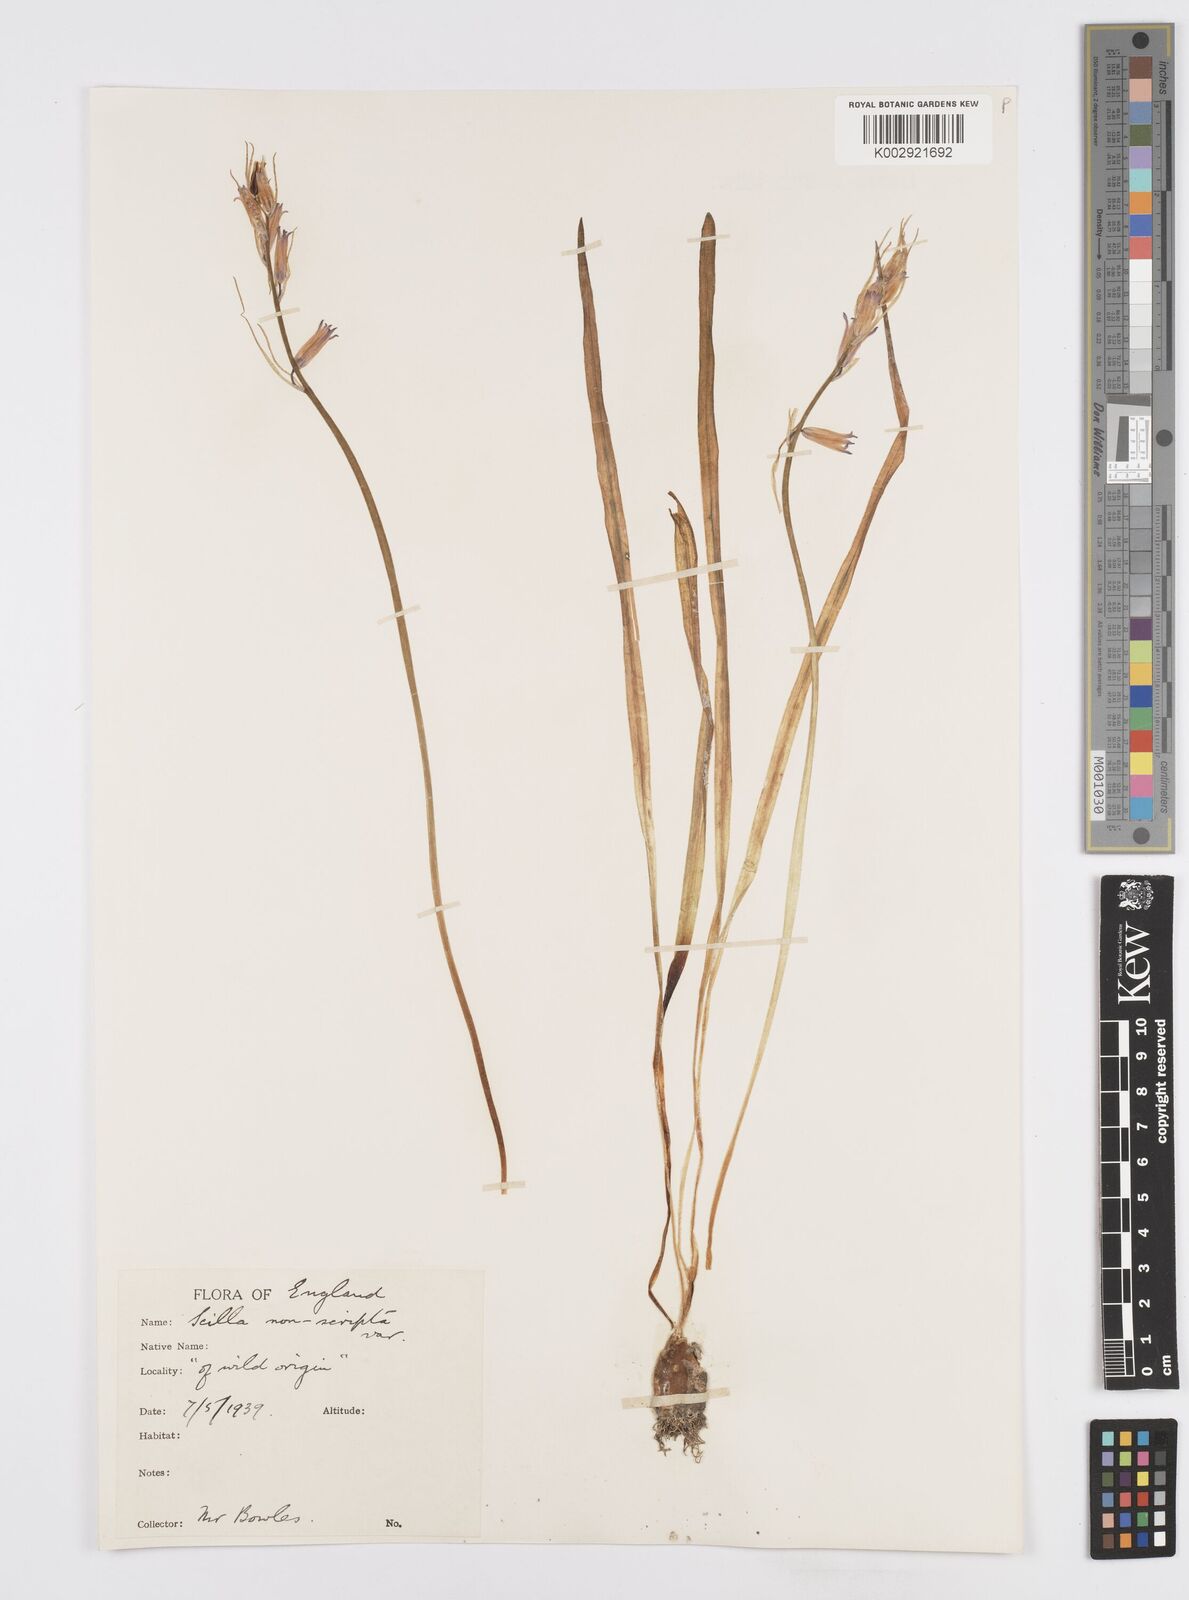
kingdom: Plantae
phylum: Tracheophyta
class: Liliopsida
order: Asparagales
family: Asparagaceae
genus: Hyacinthoides
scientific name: Hyacinthoides
